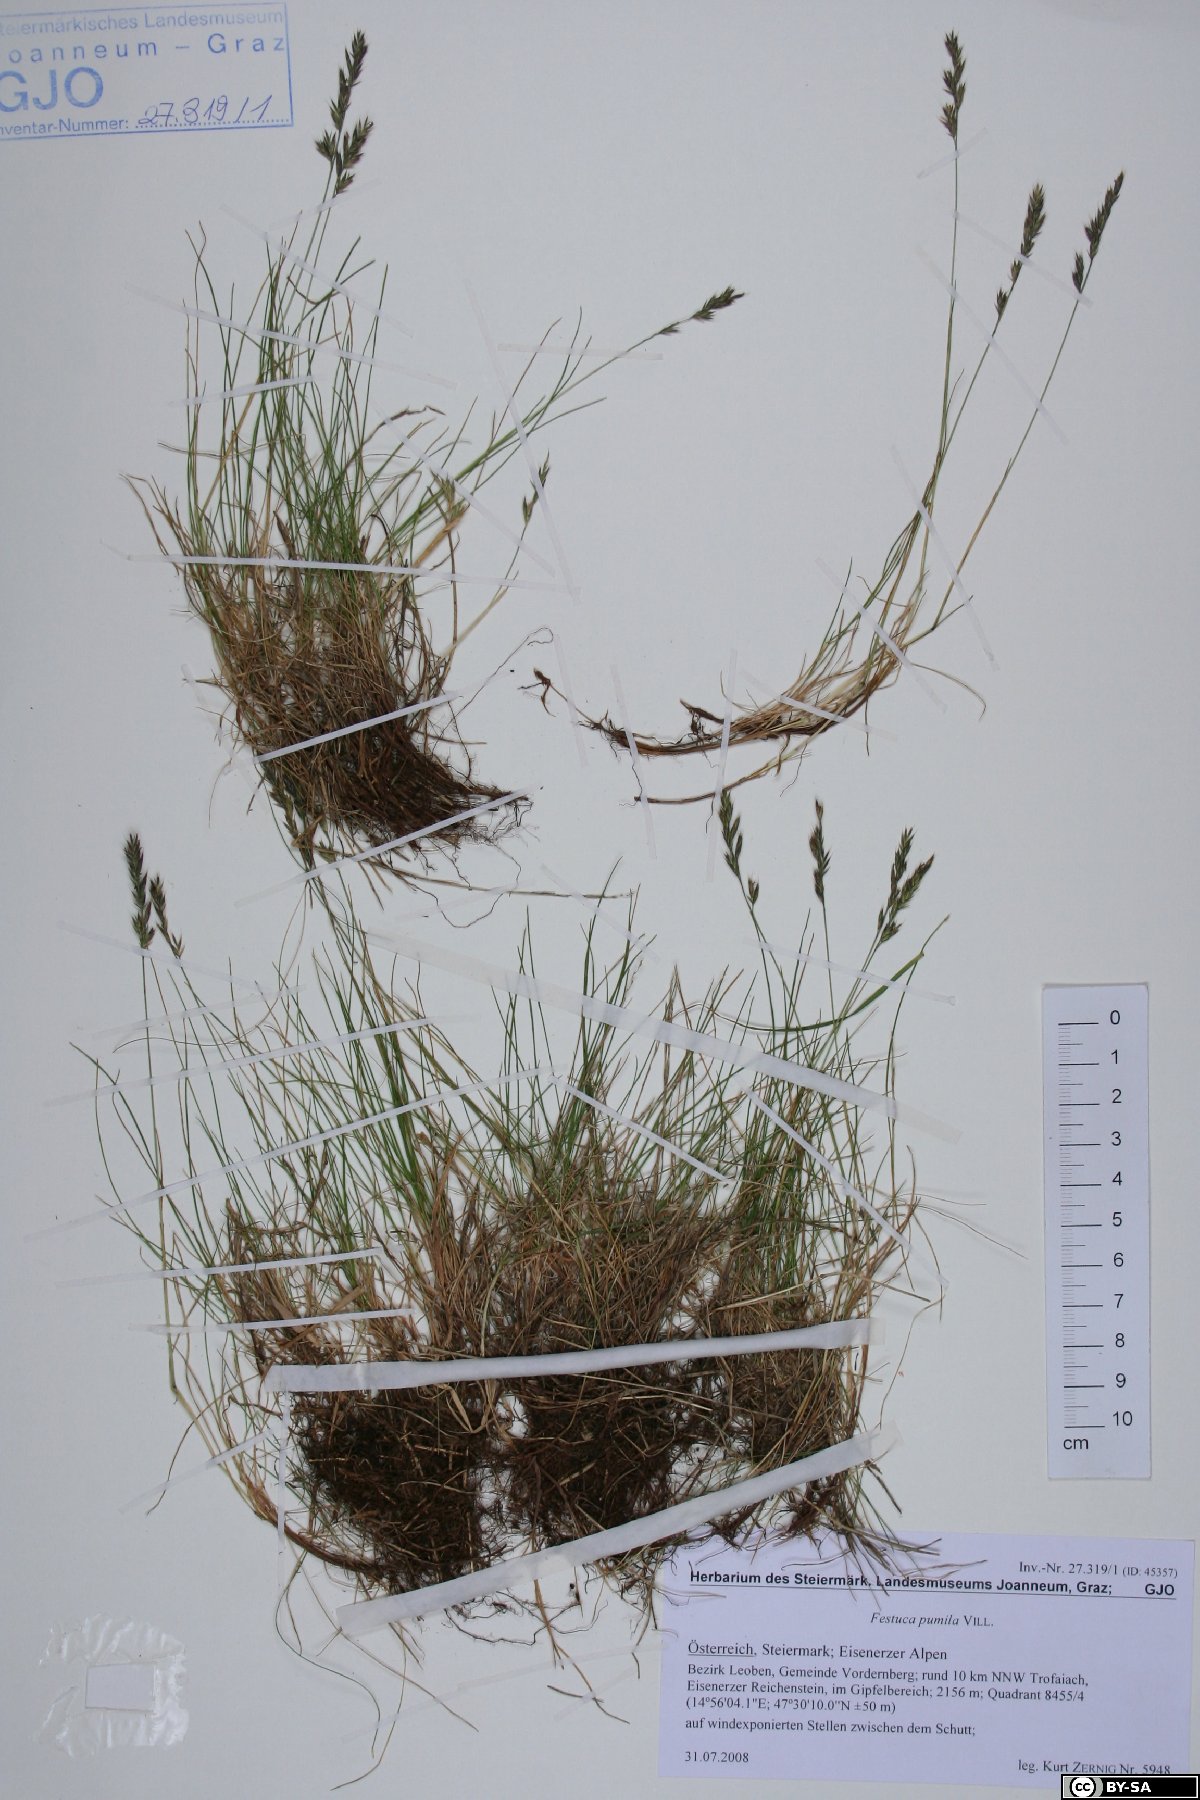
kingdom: Plantae
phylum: Tracheophyta
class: Liliopsida
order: Poales
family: Poaceae
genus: Festuca
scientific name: Festuca rupicaprina
